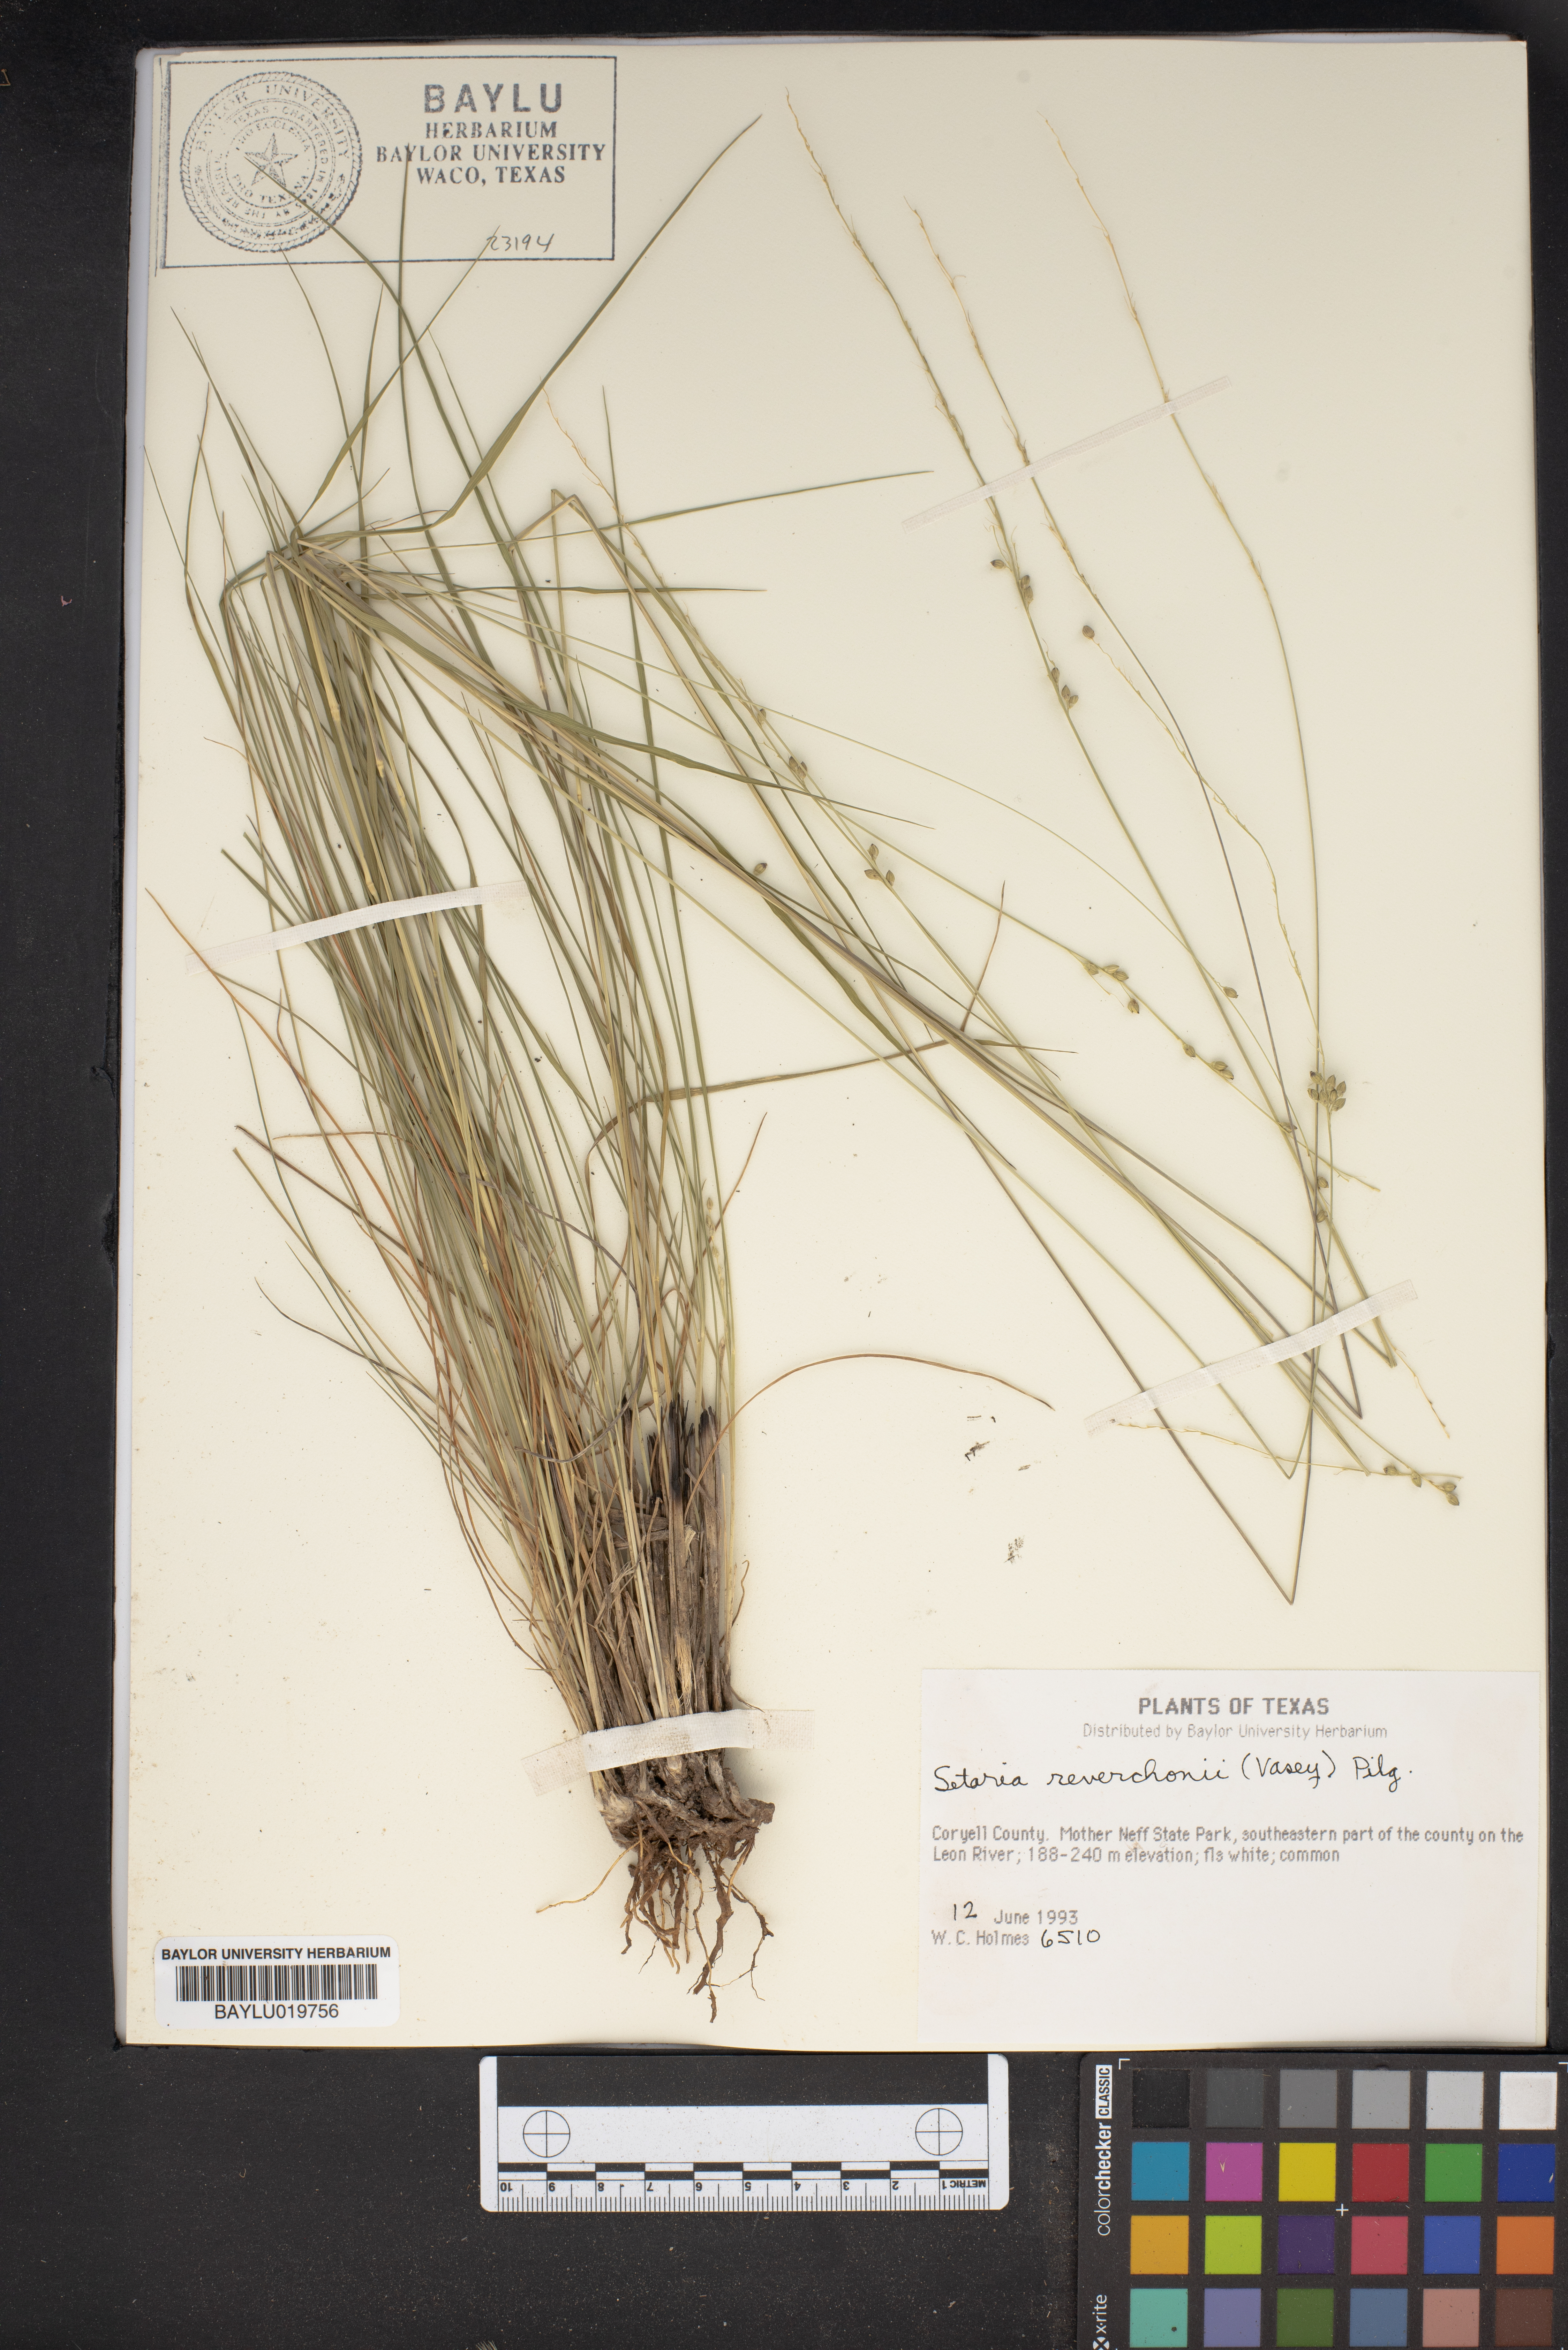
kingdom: Plantae
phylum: Tracheophyta
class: Liliopsida
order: Poales
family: Poaceae
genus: Setaria
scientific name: Setaria reverchonii
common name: Reverchon's bristle grass
